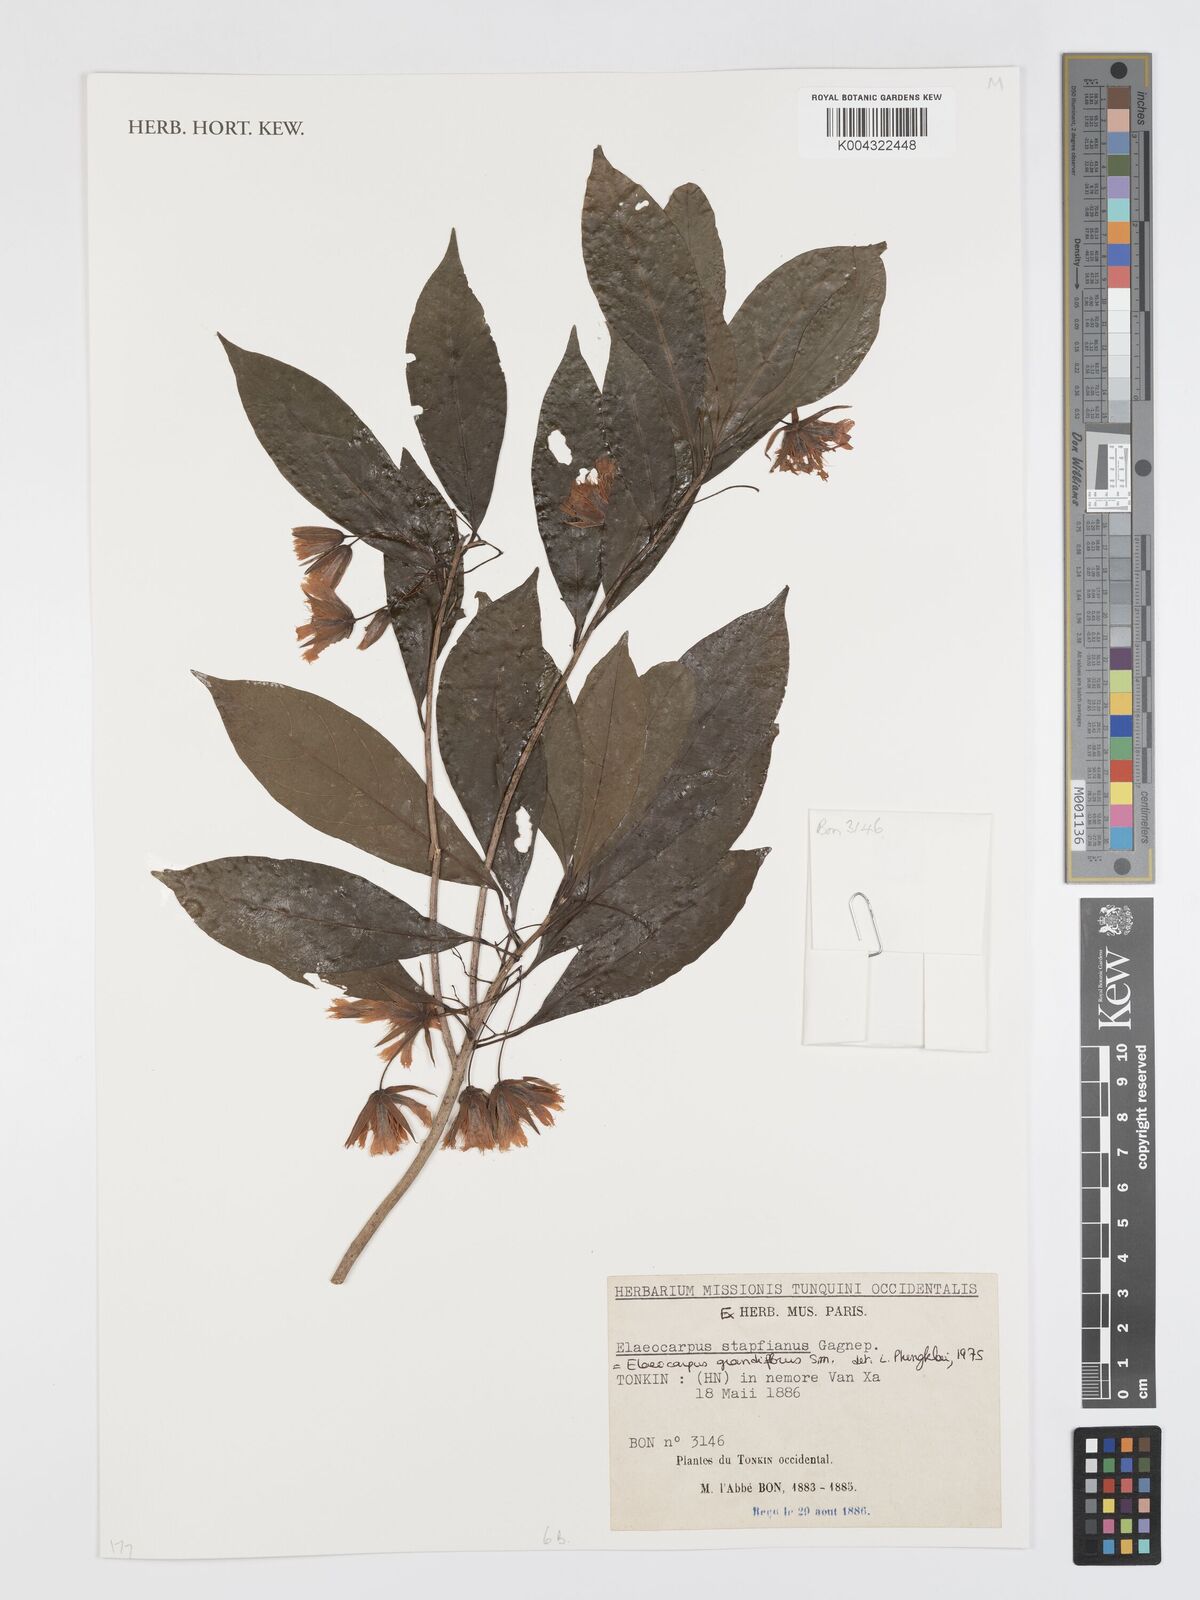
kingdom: Plantae
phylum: Tracheophyta
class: Magnoliopsida
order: Oxalidales
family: Elaeocarpaceae
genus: Elaeocarpus
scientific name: Elaeocarpus grandiflorus
